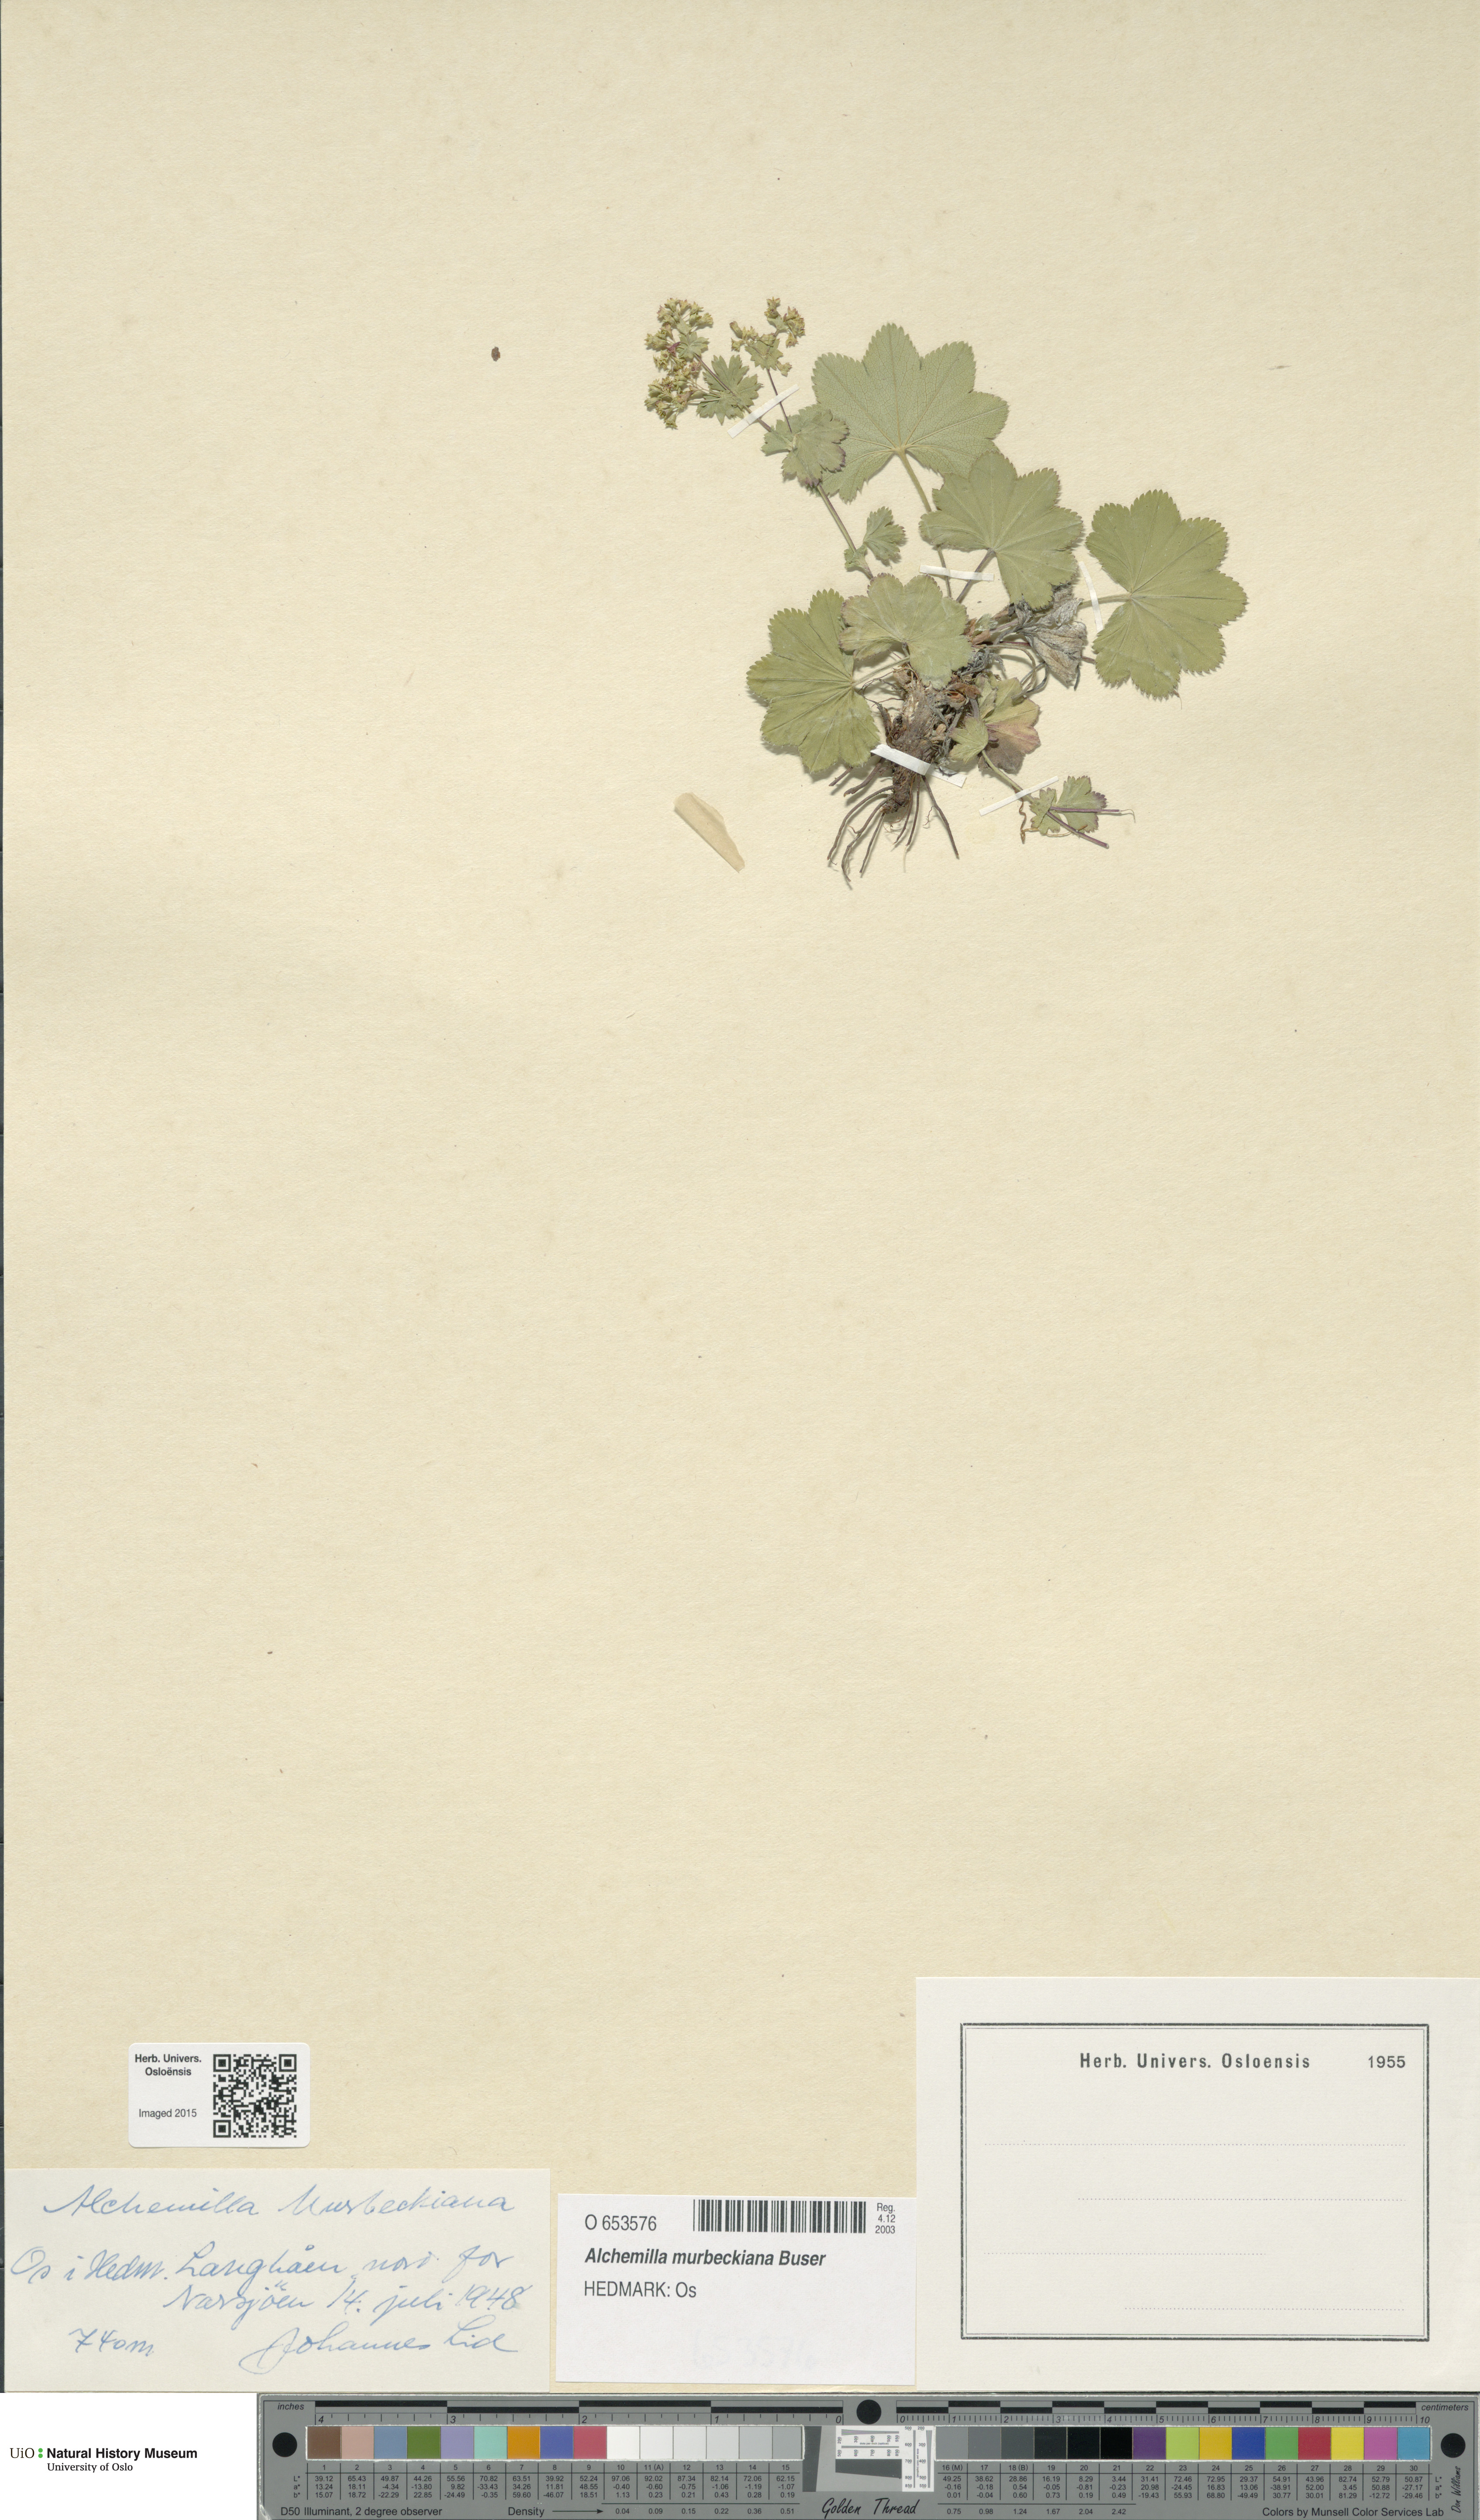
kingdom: Plantae
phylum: Tracheophyta
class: Magnoliopsida
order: Rosales
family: Rosaceae
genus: Alchemilla
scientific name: Alchemilla murbeckiana
